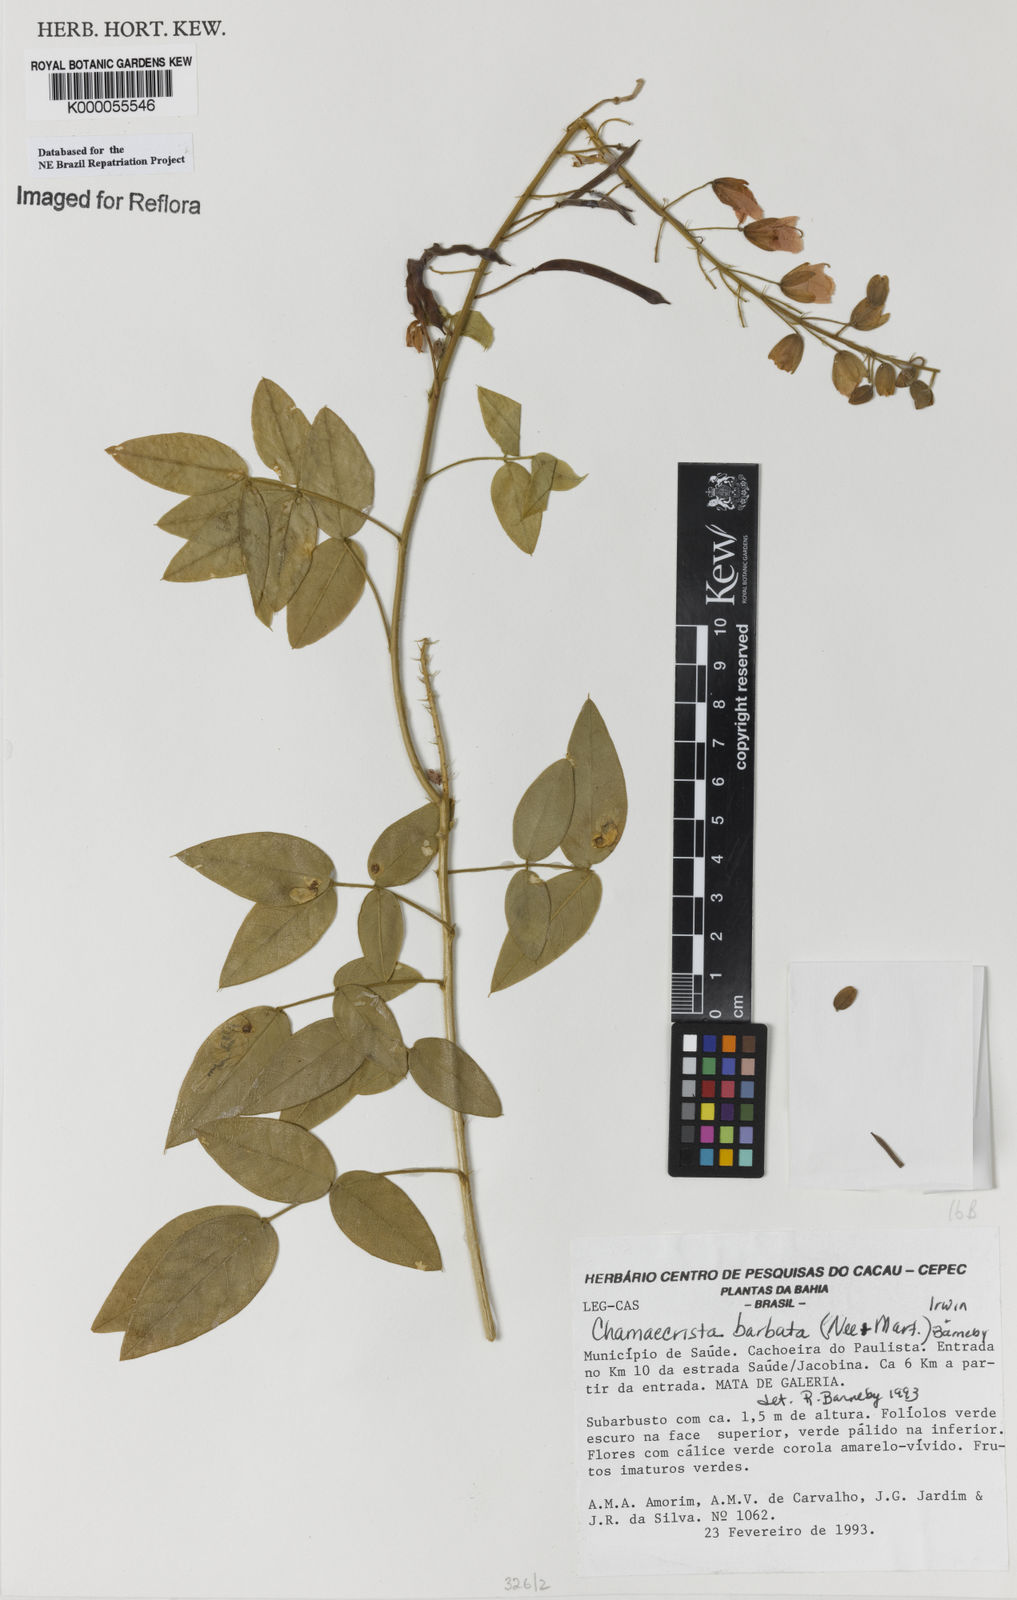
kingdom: Plantae
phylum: Tracheophyta
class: Magnoliopsida
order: Fabales
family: Fabaceae
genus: Chamaecrista
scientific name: Chamaecrista barbata
